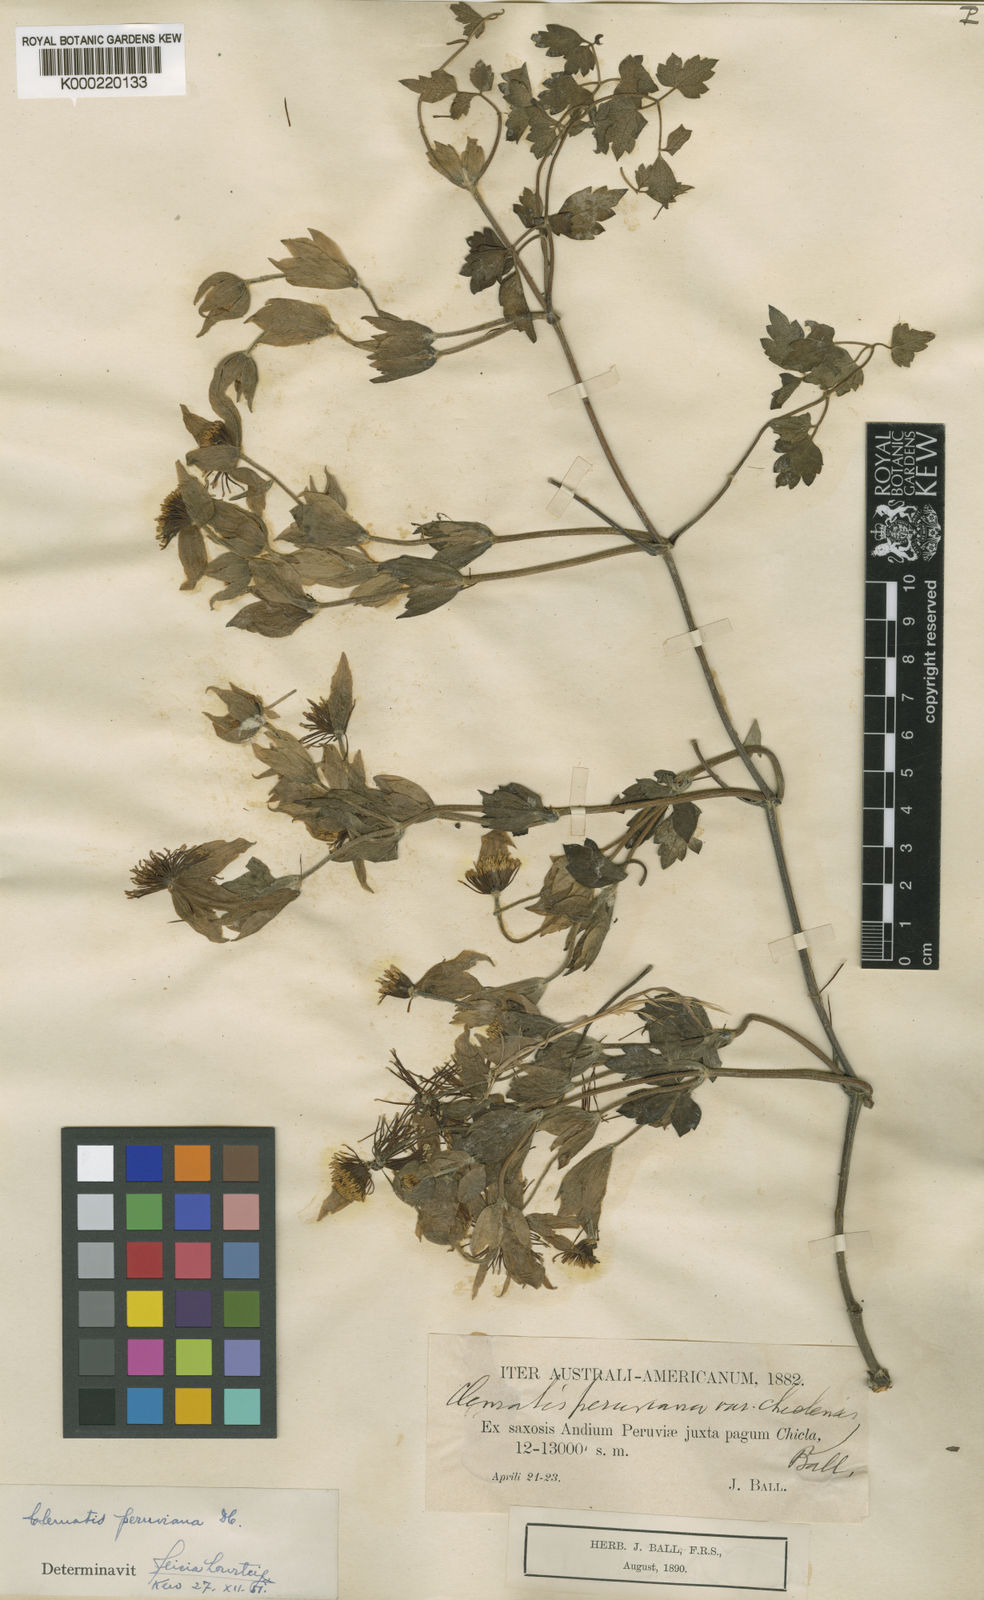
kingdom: Plantae
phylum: Tracheophyta
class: Magnoliopsida
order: Ranunculales
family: Ranunculaceae
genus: Clematis
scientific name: Clematis peruviana
